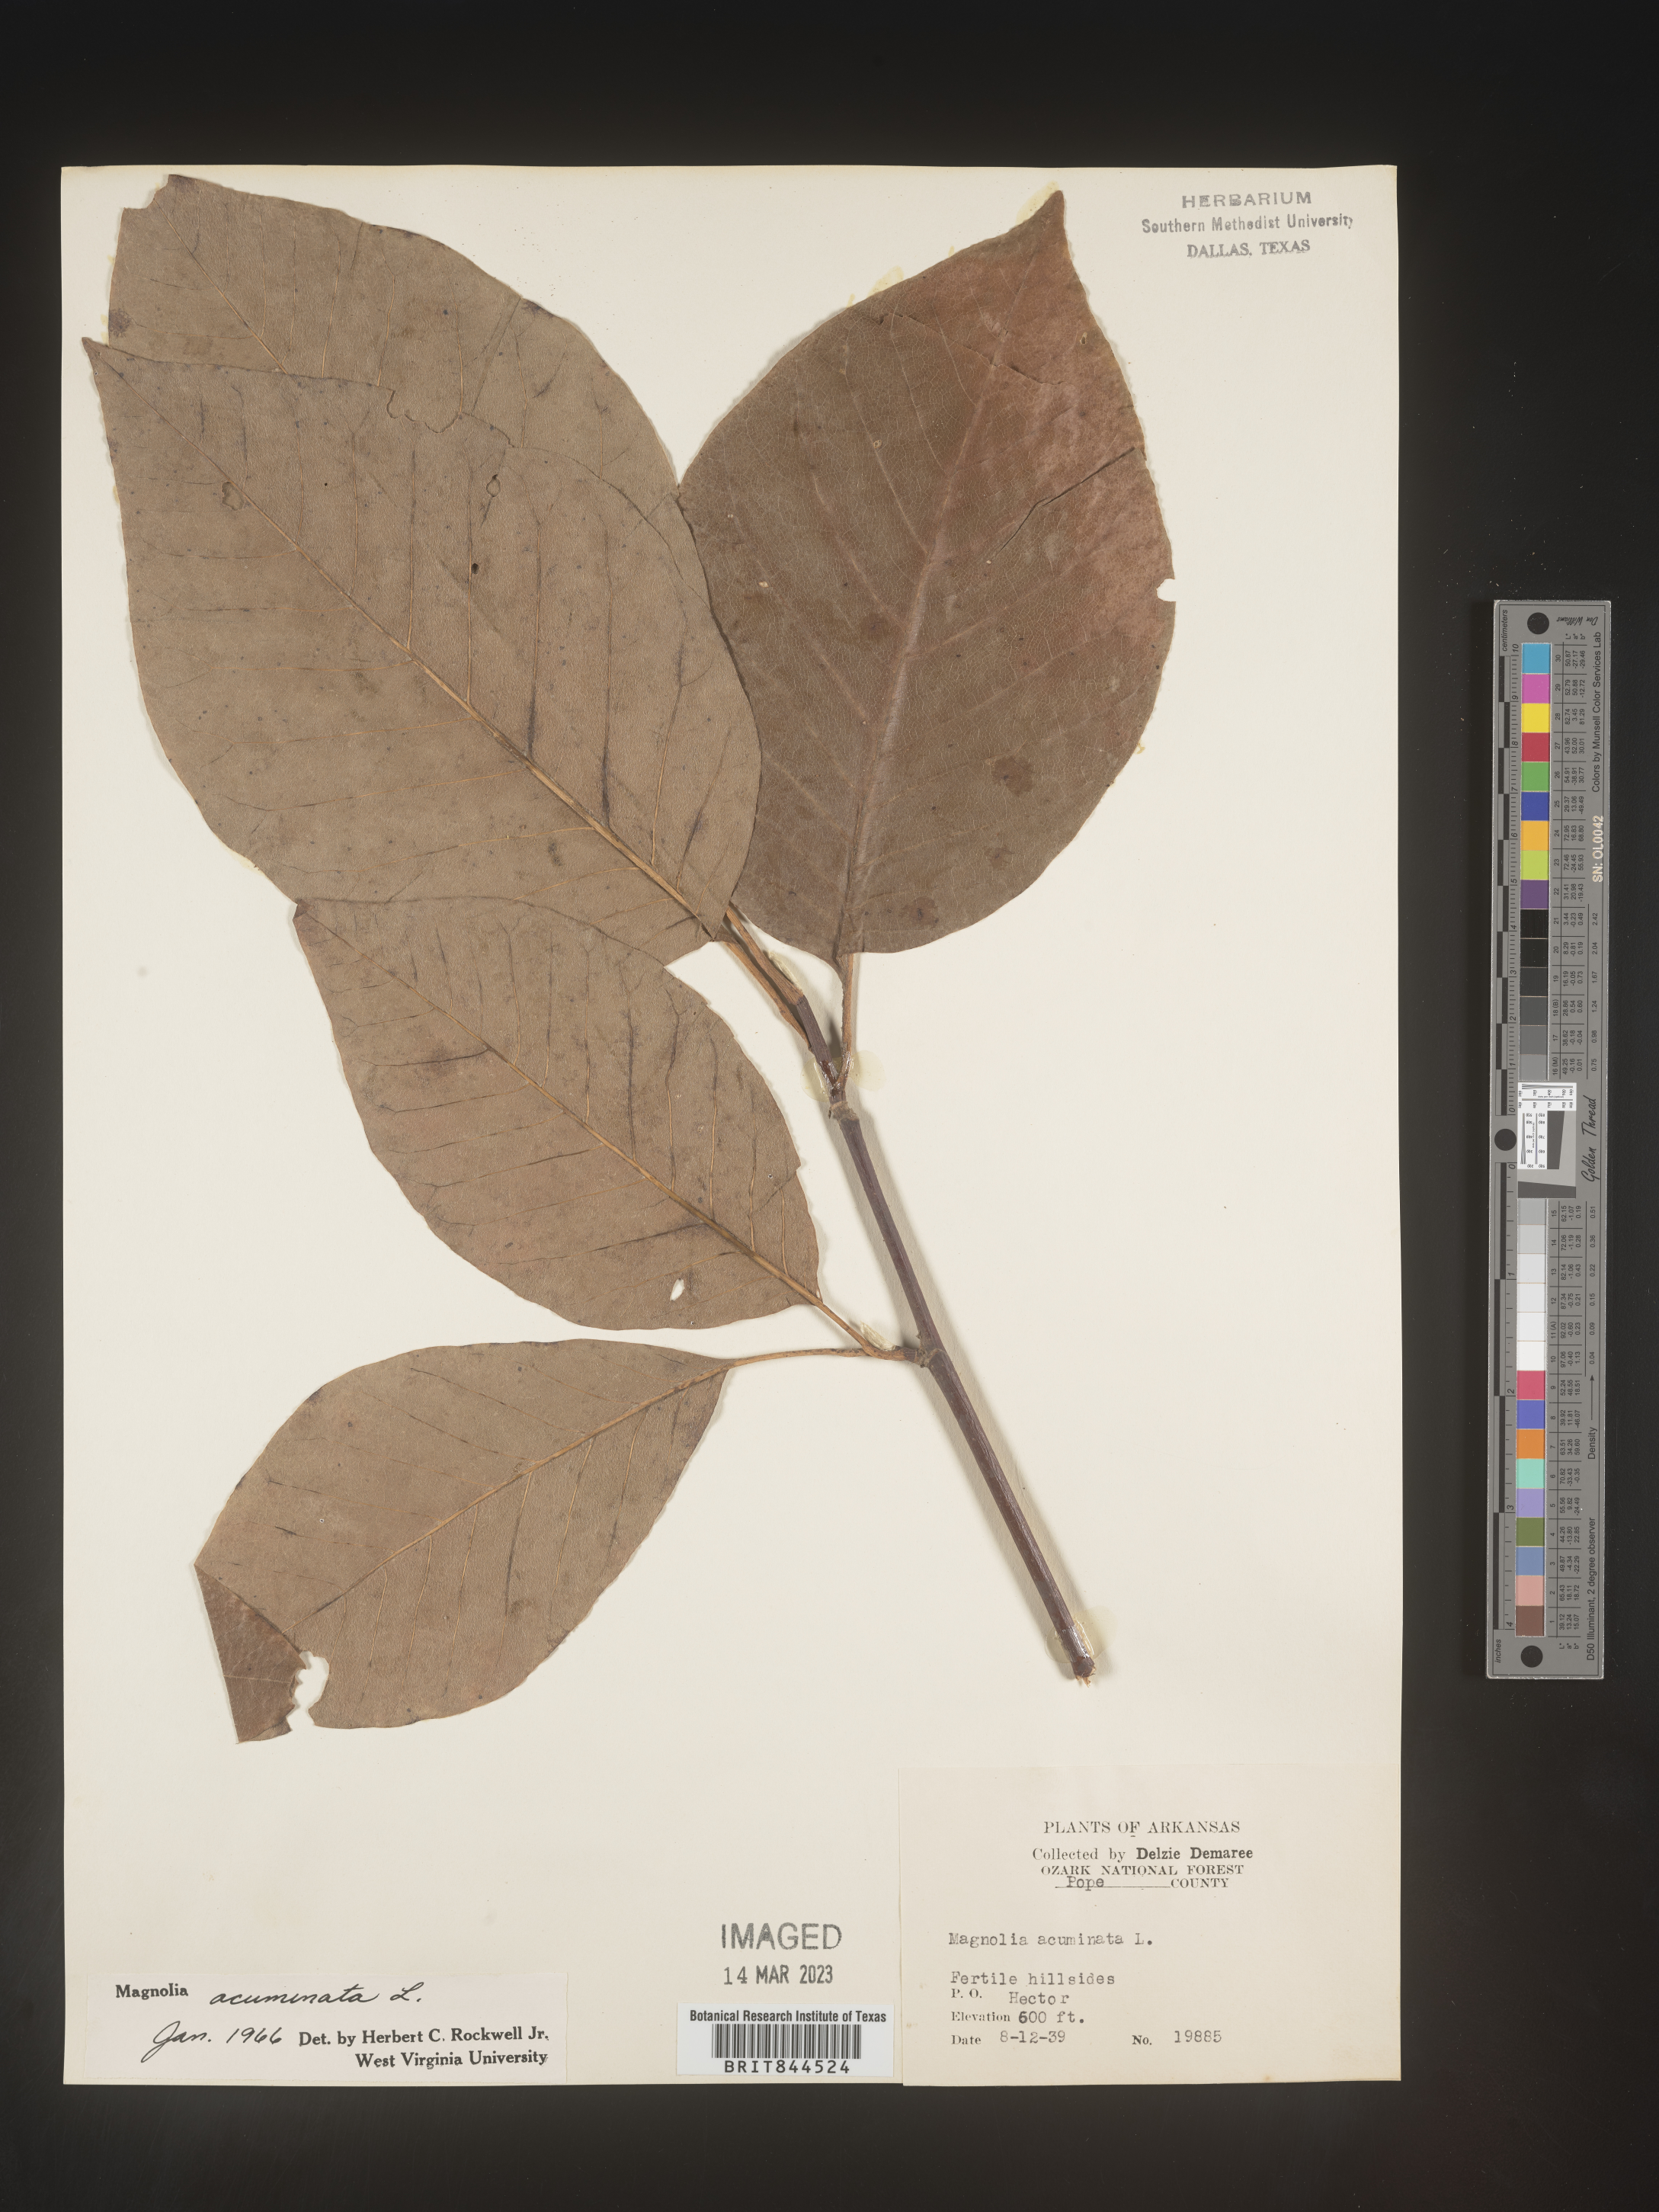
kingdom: Plantae
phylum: Tracheophyta
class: Magnoliopsida
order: Magnoliales
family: Magnoliaceae
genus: Magnolia
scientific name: Magnolia acuminata
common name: Cucumber magnolia
